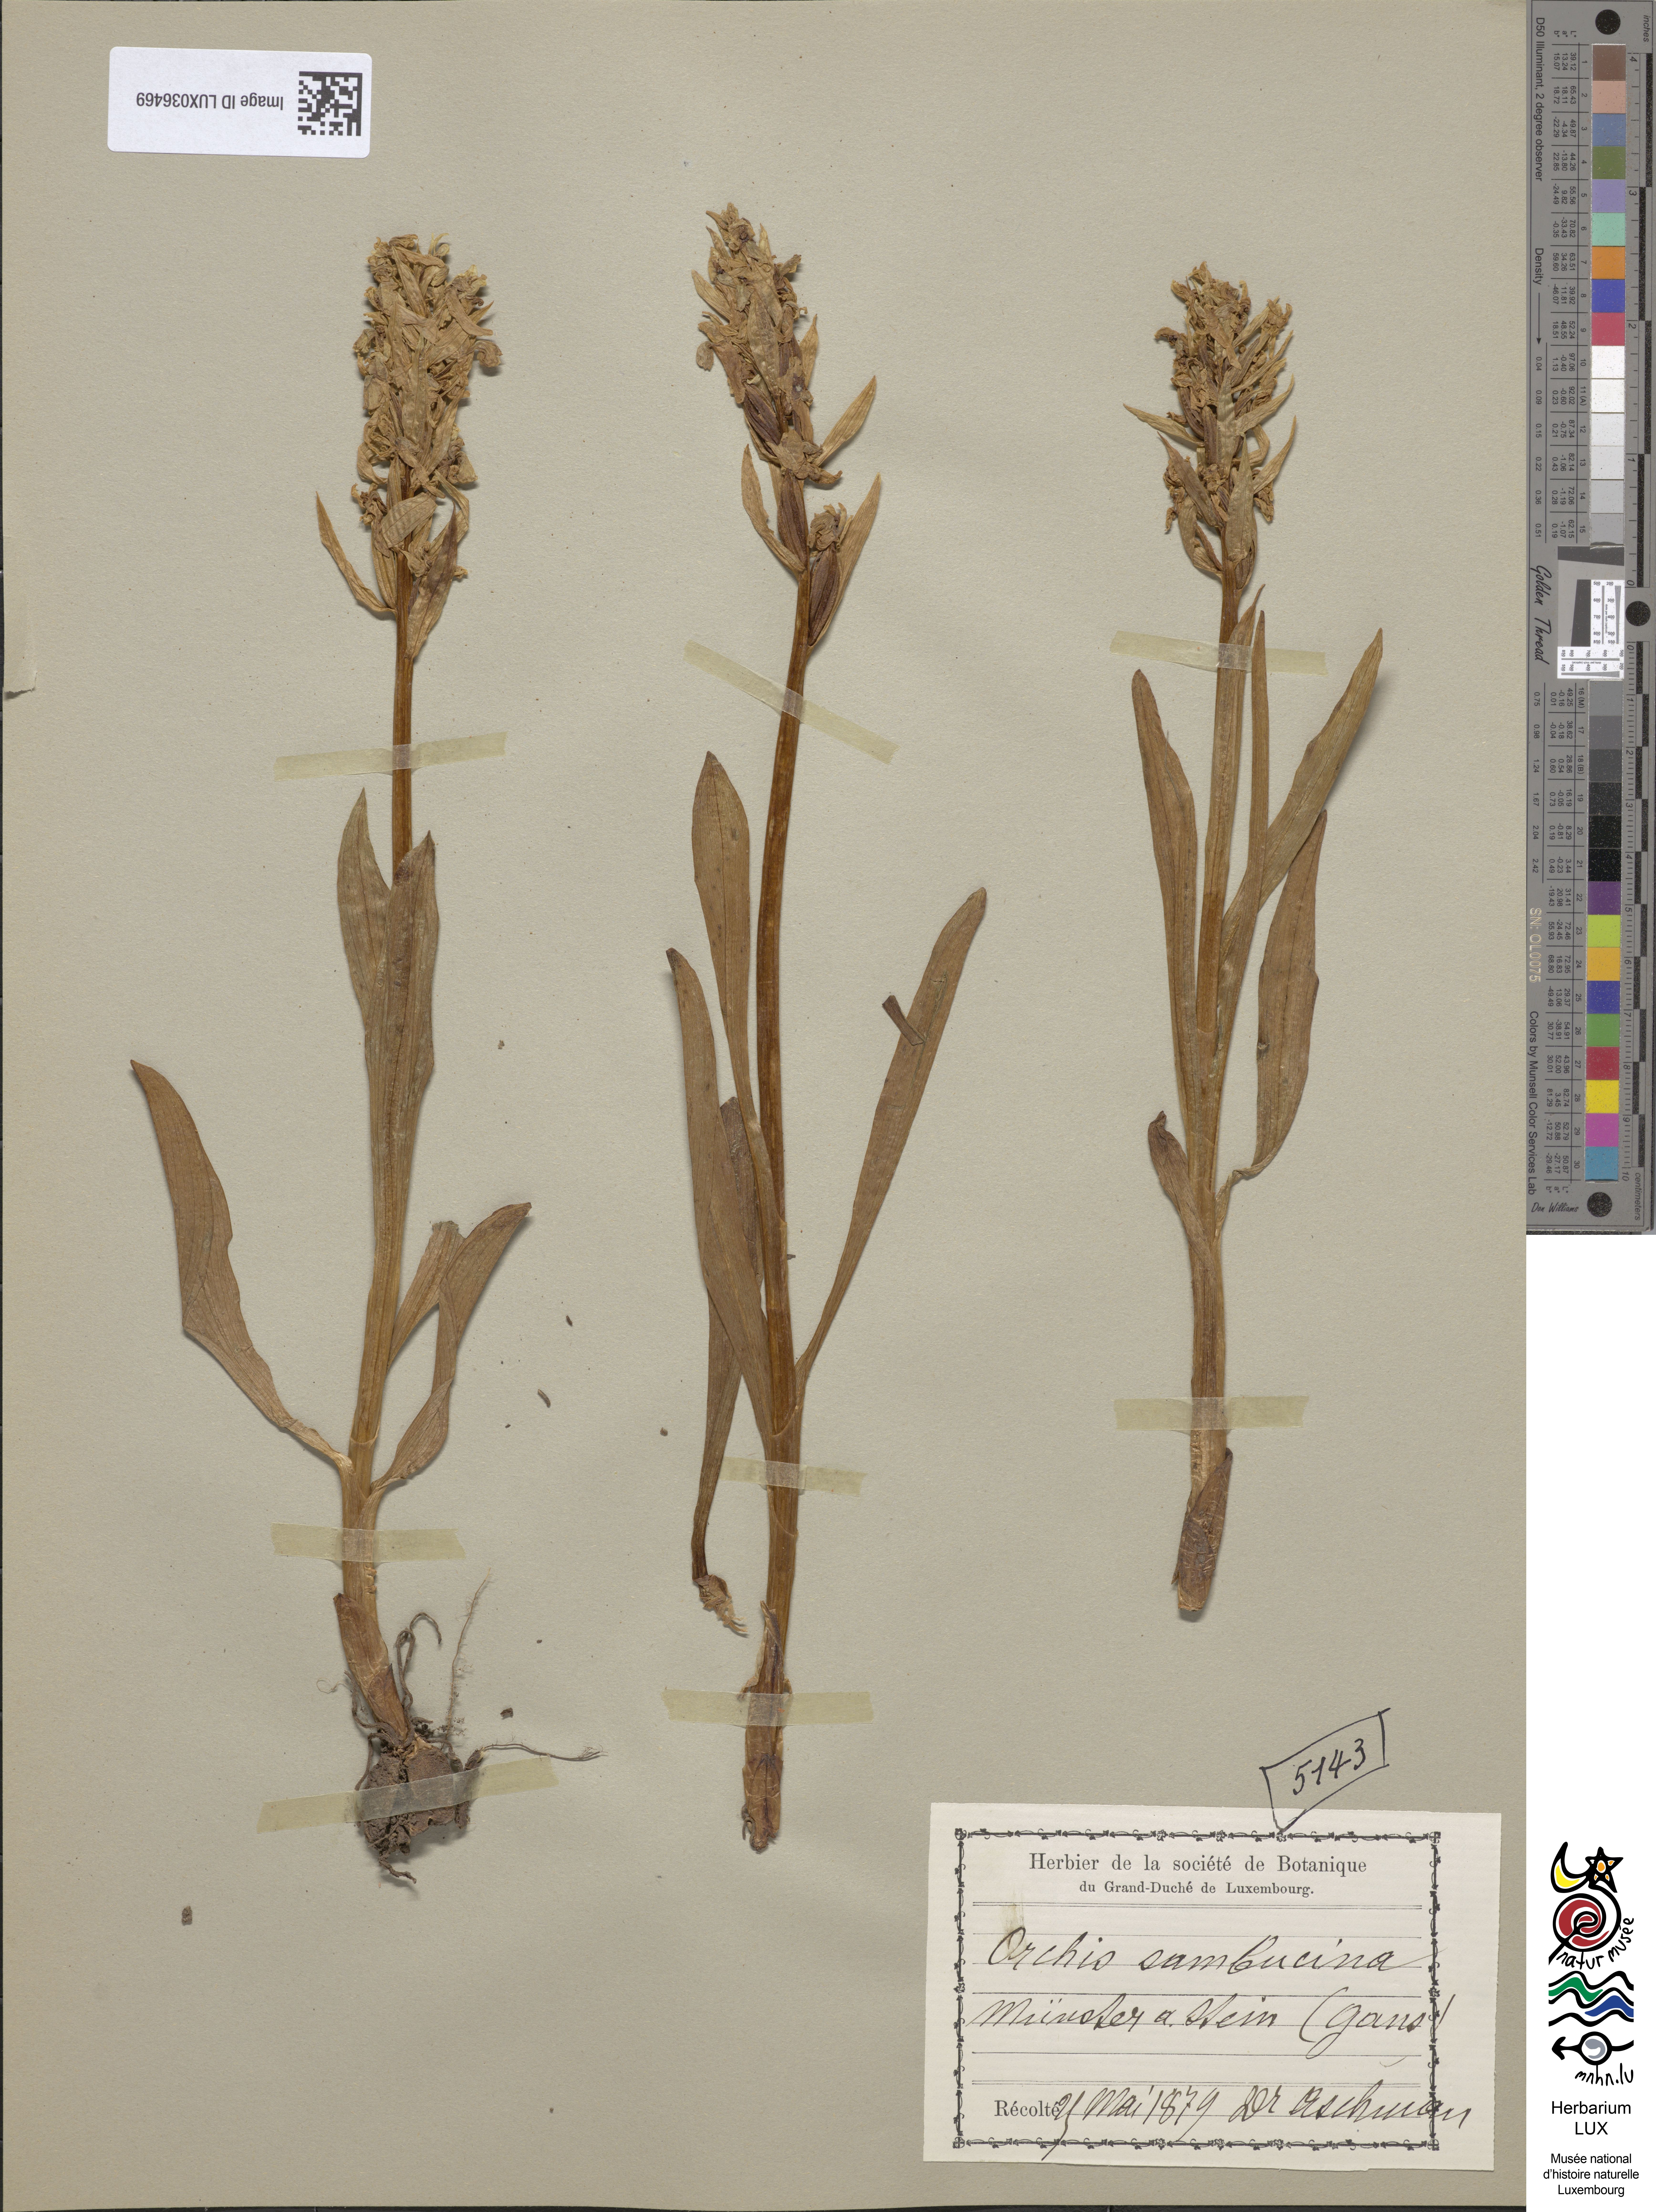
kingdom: Plantae
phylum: Tracheophyta
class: Liliopsida
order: Asparagales
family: Orchidaceae
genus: Dactylorhiza
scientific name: Dactylorhiza sambucina
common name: Elder-flowered orchid
